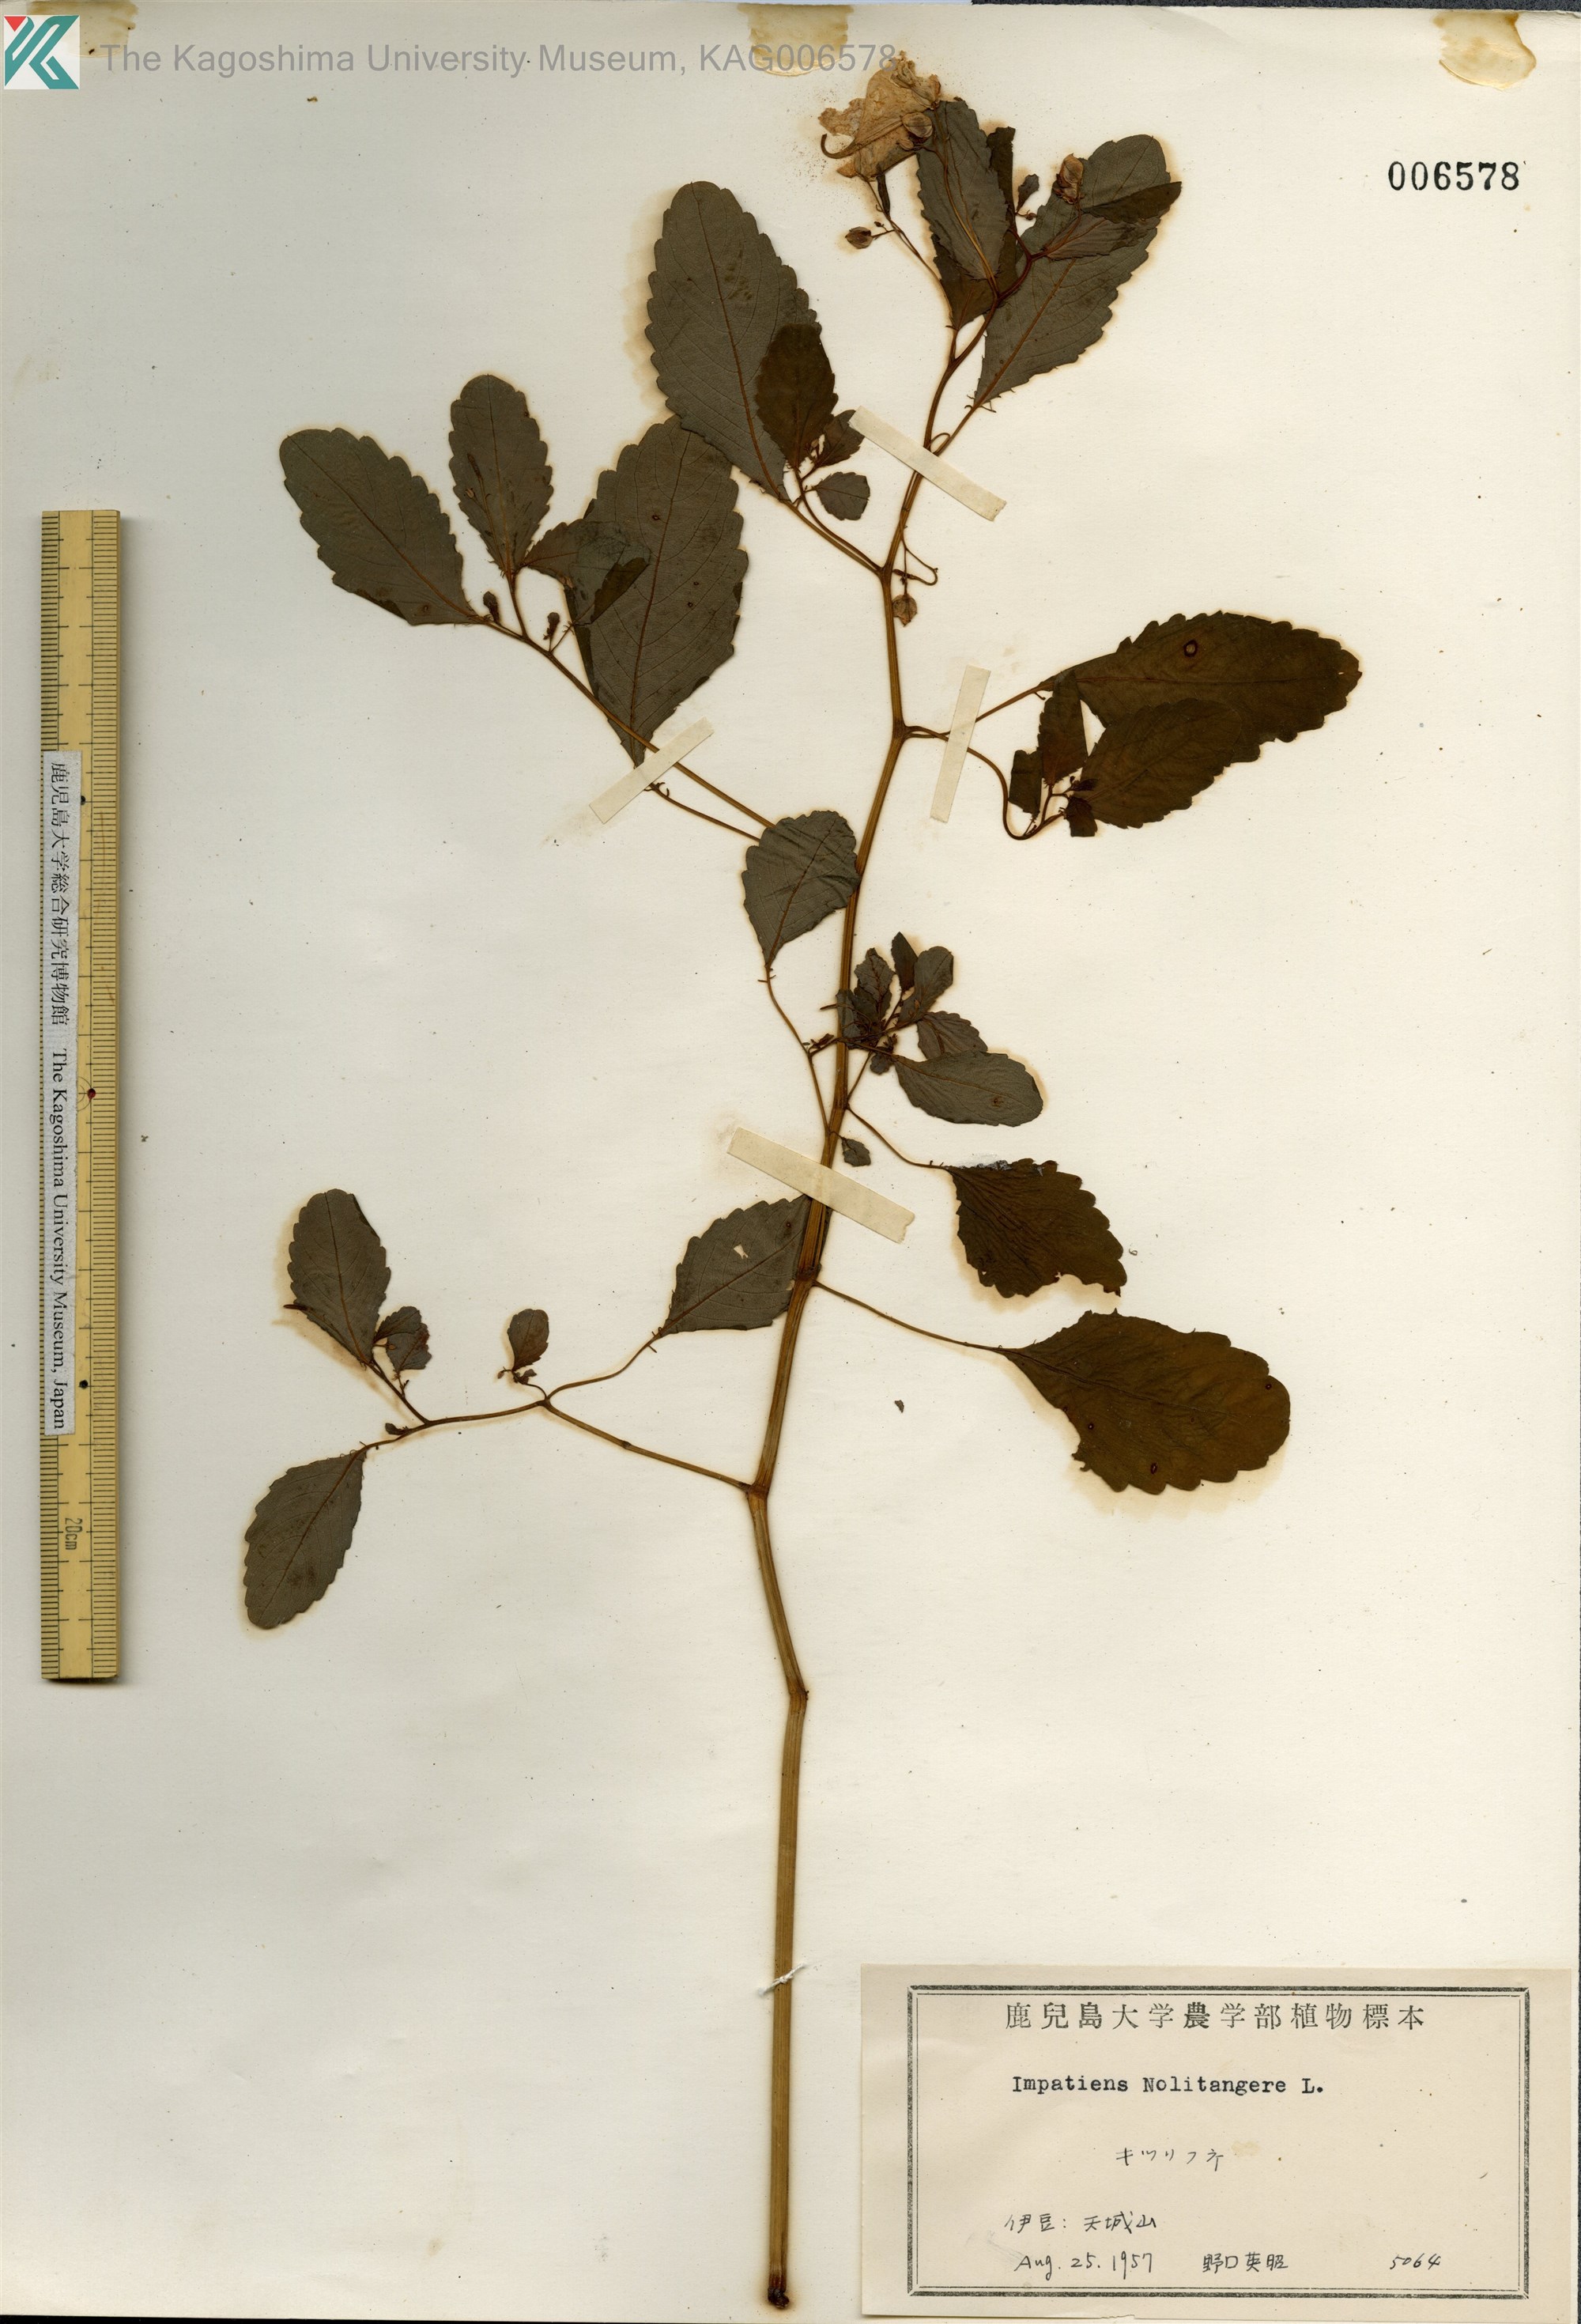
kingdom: Plantae
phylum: Tracheophyta
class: Magnoliopsida
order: Ericales
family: Balsaminaceae
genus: Impatiens
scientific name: Impatiens noli-tangere
